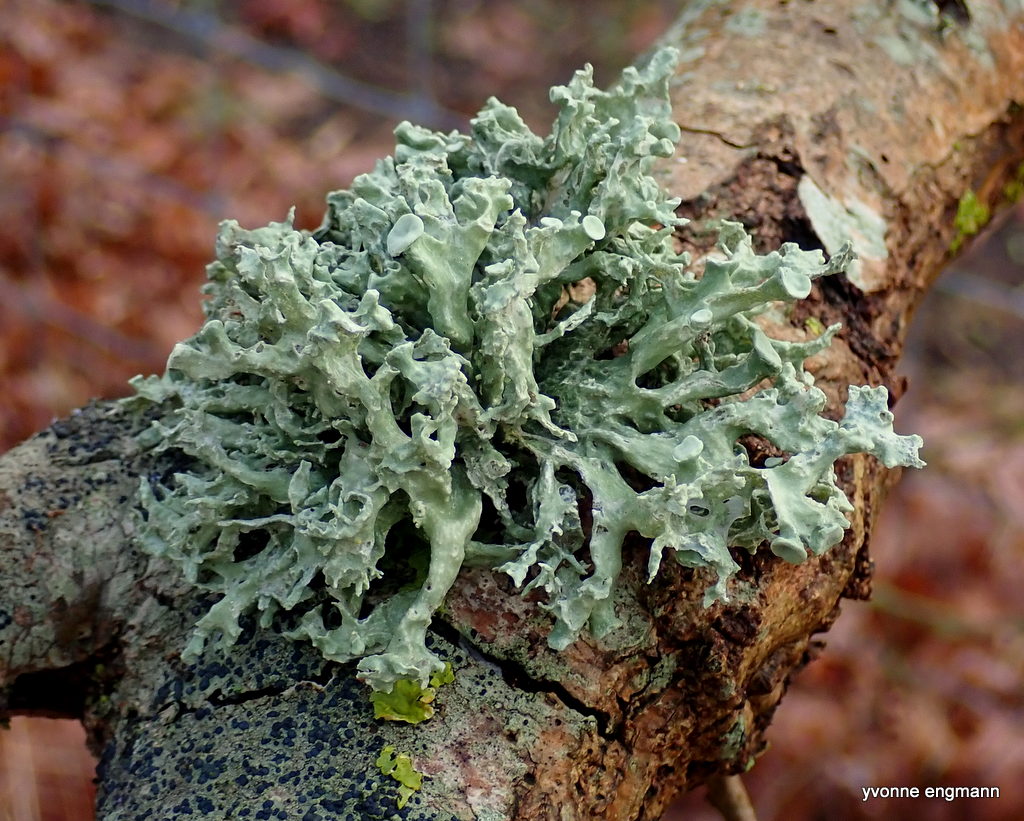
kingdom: Fungi
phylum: Ascomycota
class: Lecanoromycetes
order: Lecanorales
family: Ramalinaceae
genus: Ramalina
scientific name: Ramalina fastigiata
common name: tue-grenlav
